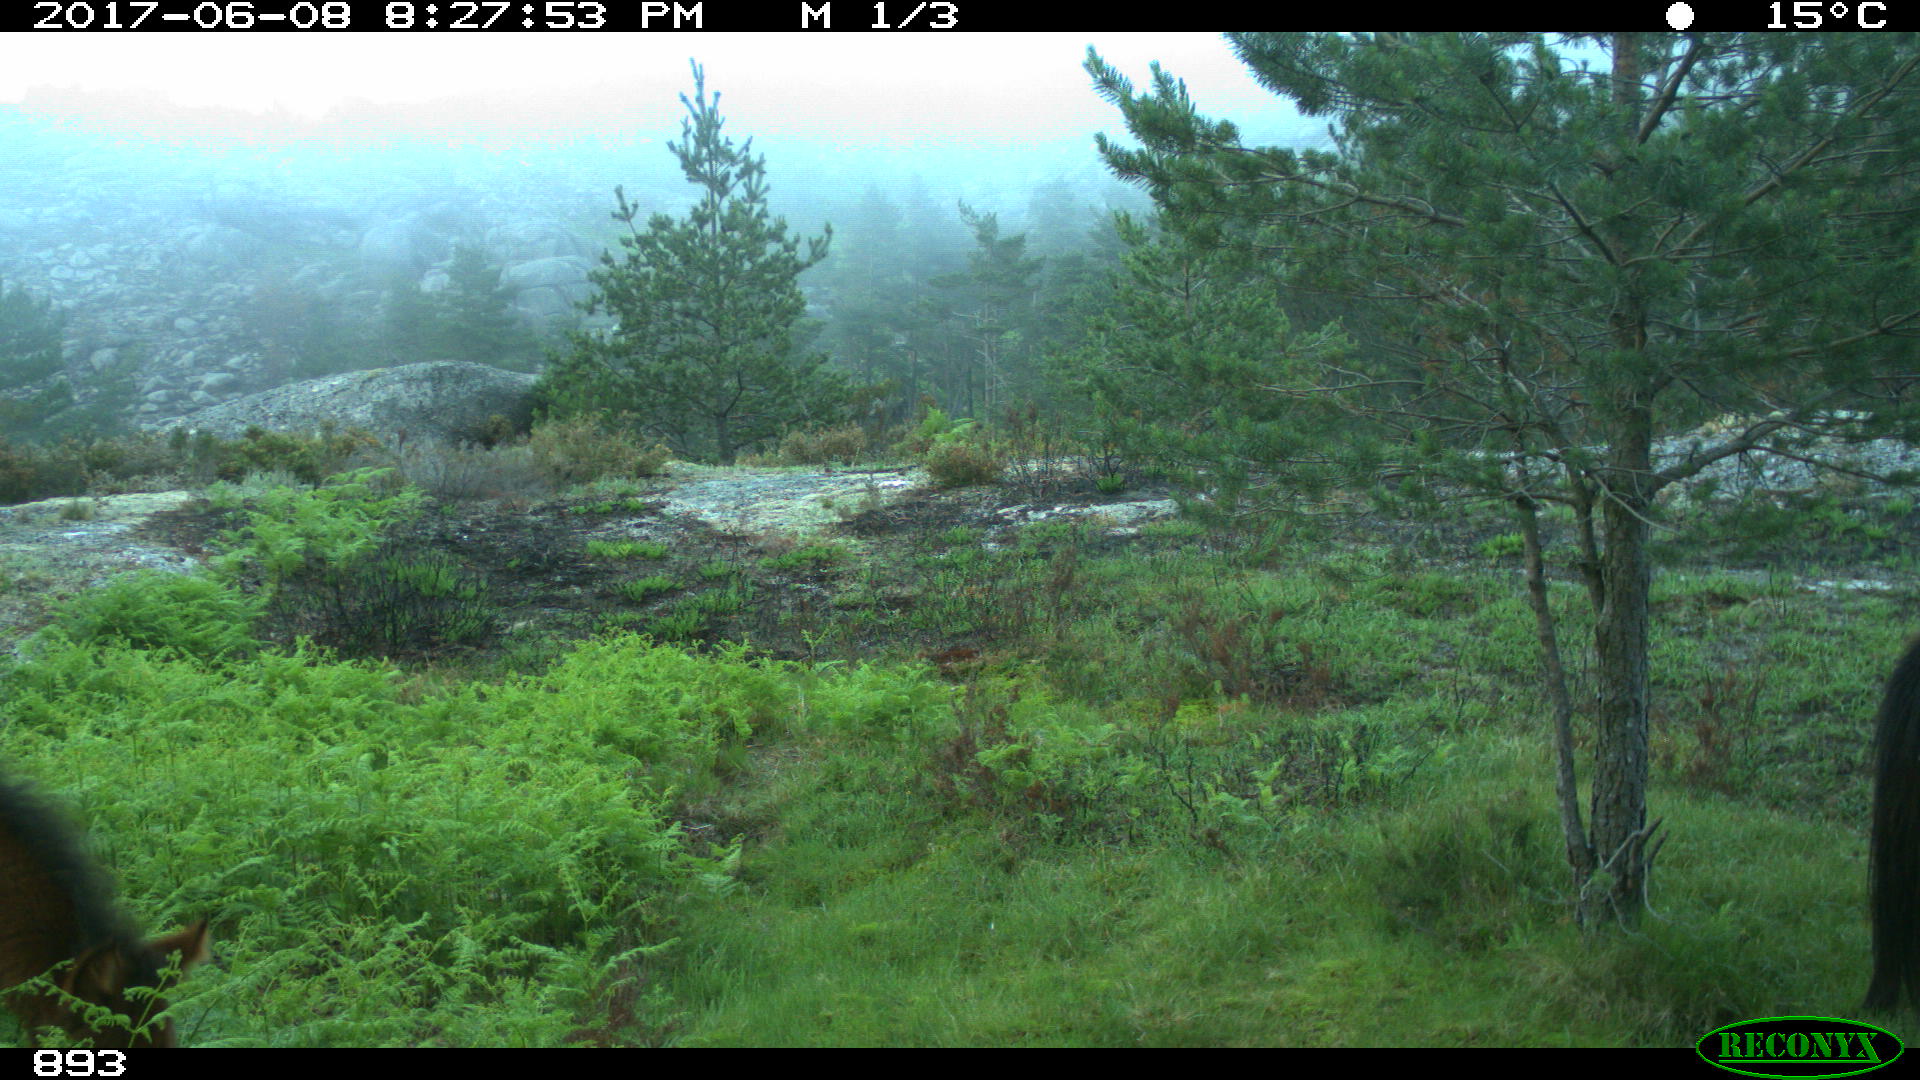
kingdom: Animalia
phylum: Chordata
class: Mammalia
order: Perissodactyla
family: Equidae
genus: Equus
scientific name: Equus caballus
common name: Horse
